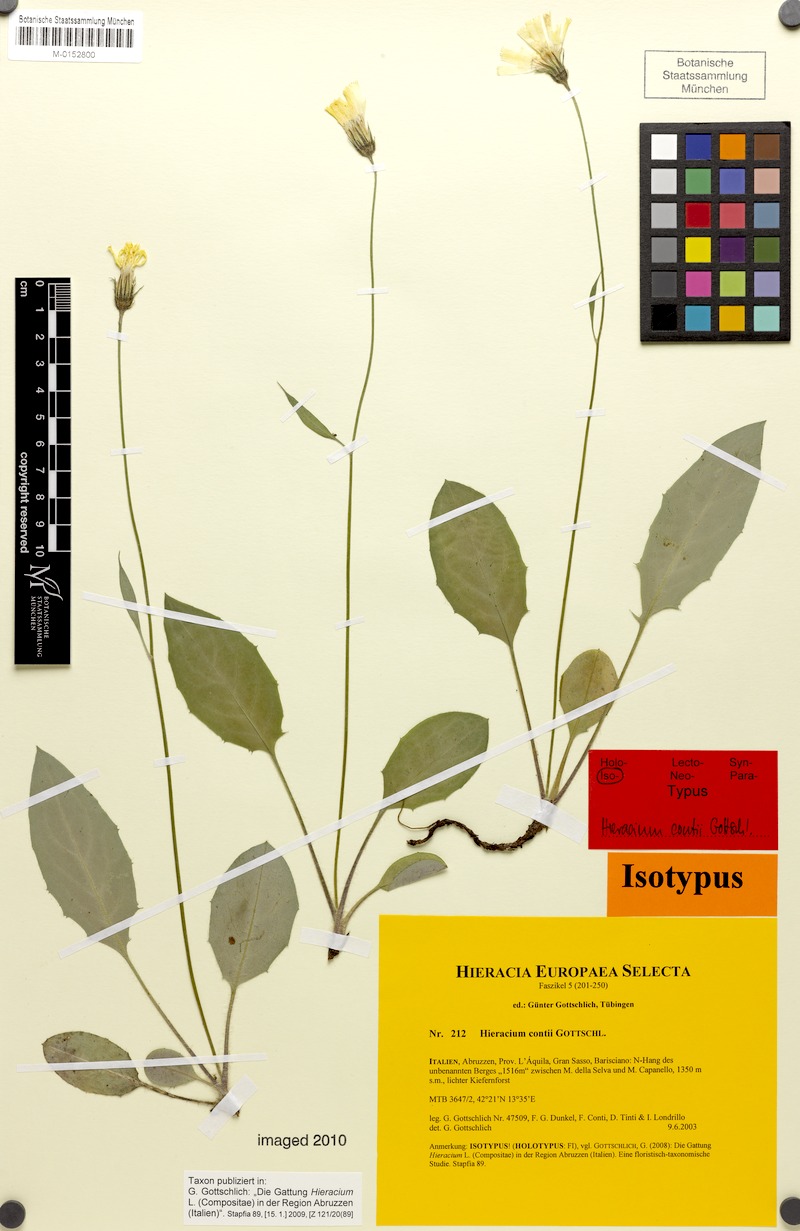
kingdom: Plantae
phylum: Tracheophyta
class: Magnoliopsida
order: Asterales
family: Asteraceae
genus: Hieracium
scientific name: Hieracium contii
